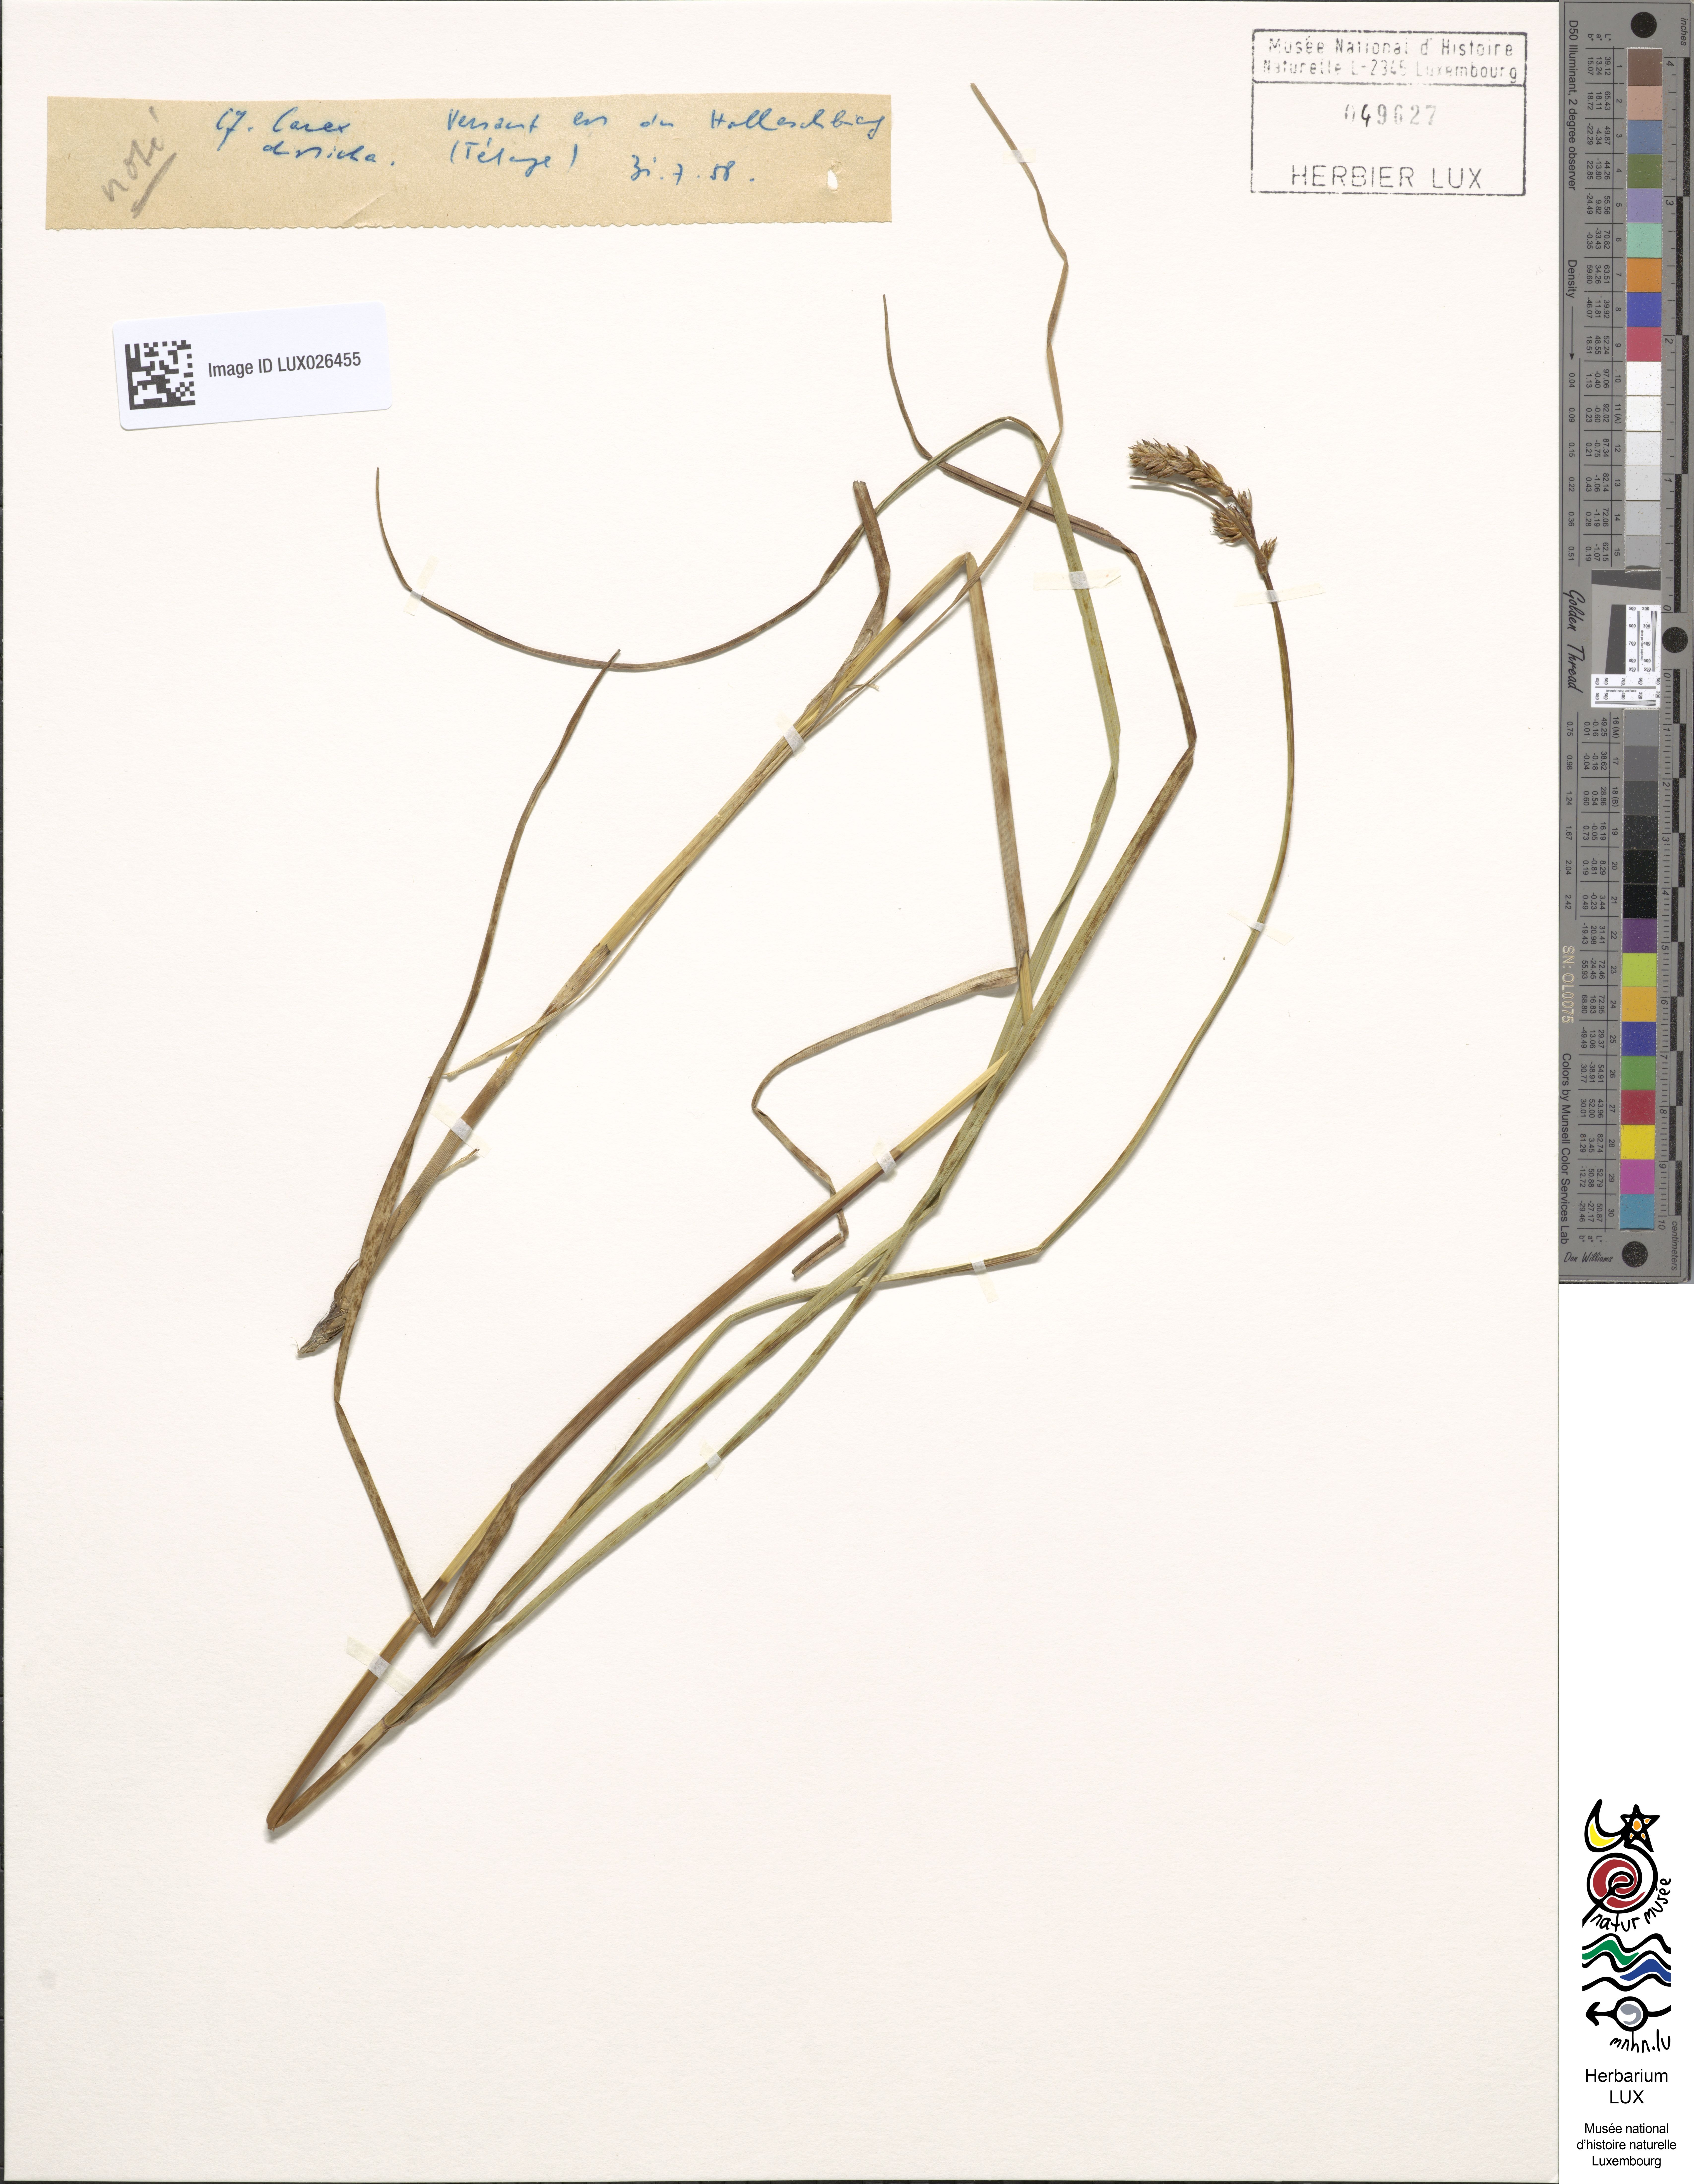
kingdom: Plantae
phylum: Tracheophyta
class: Liliopsida
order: Poales
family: Cyperaceae
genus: Carex
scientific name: Carex disticha
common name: Brown sedge
